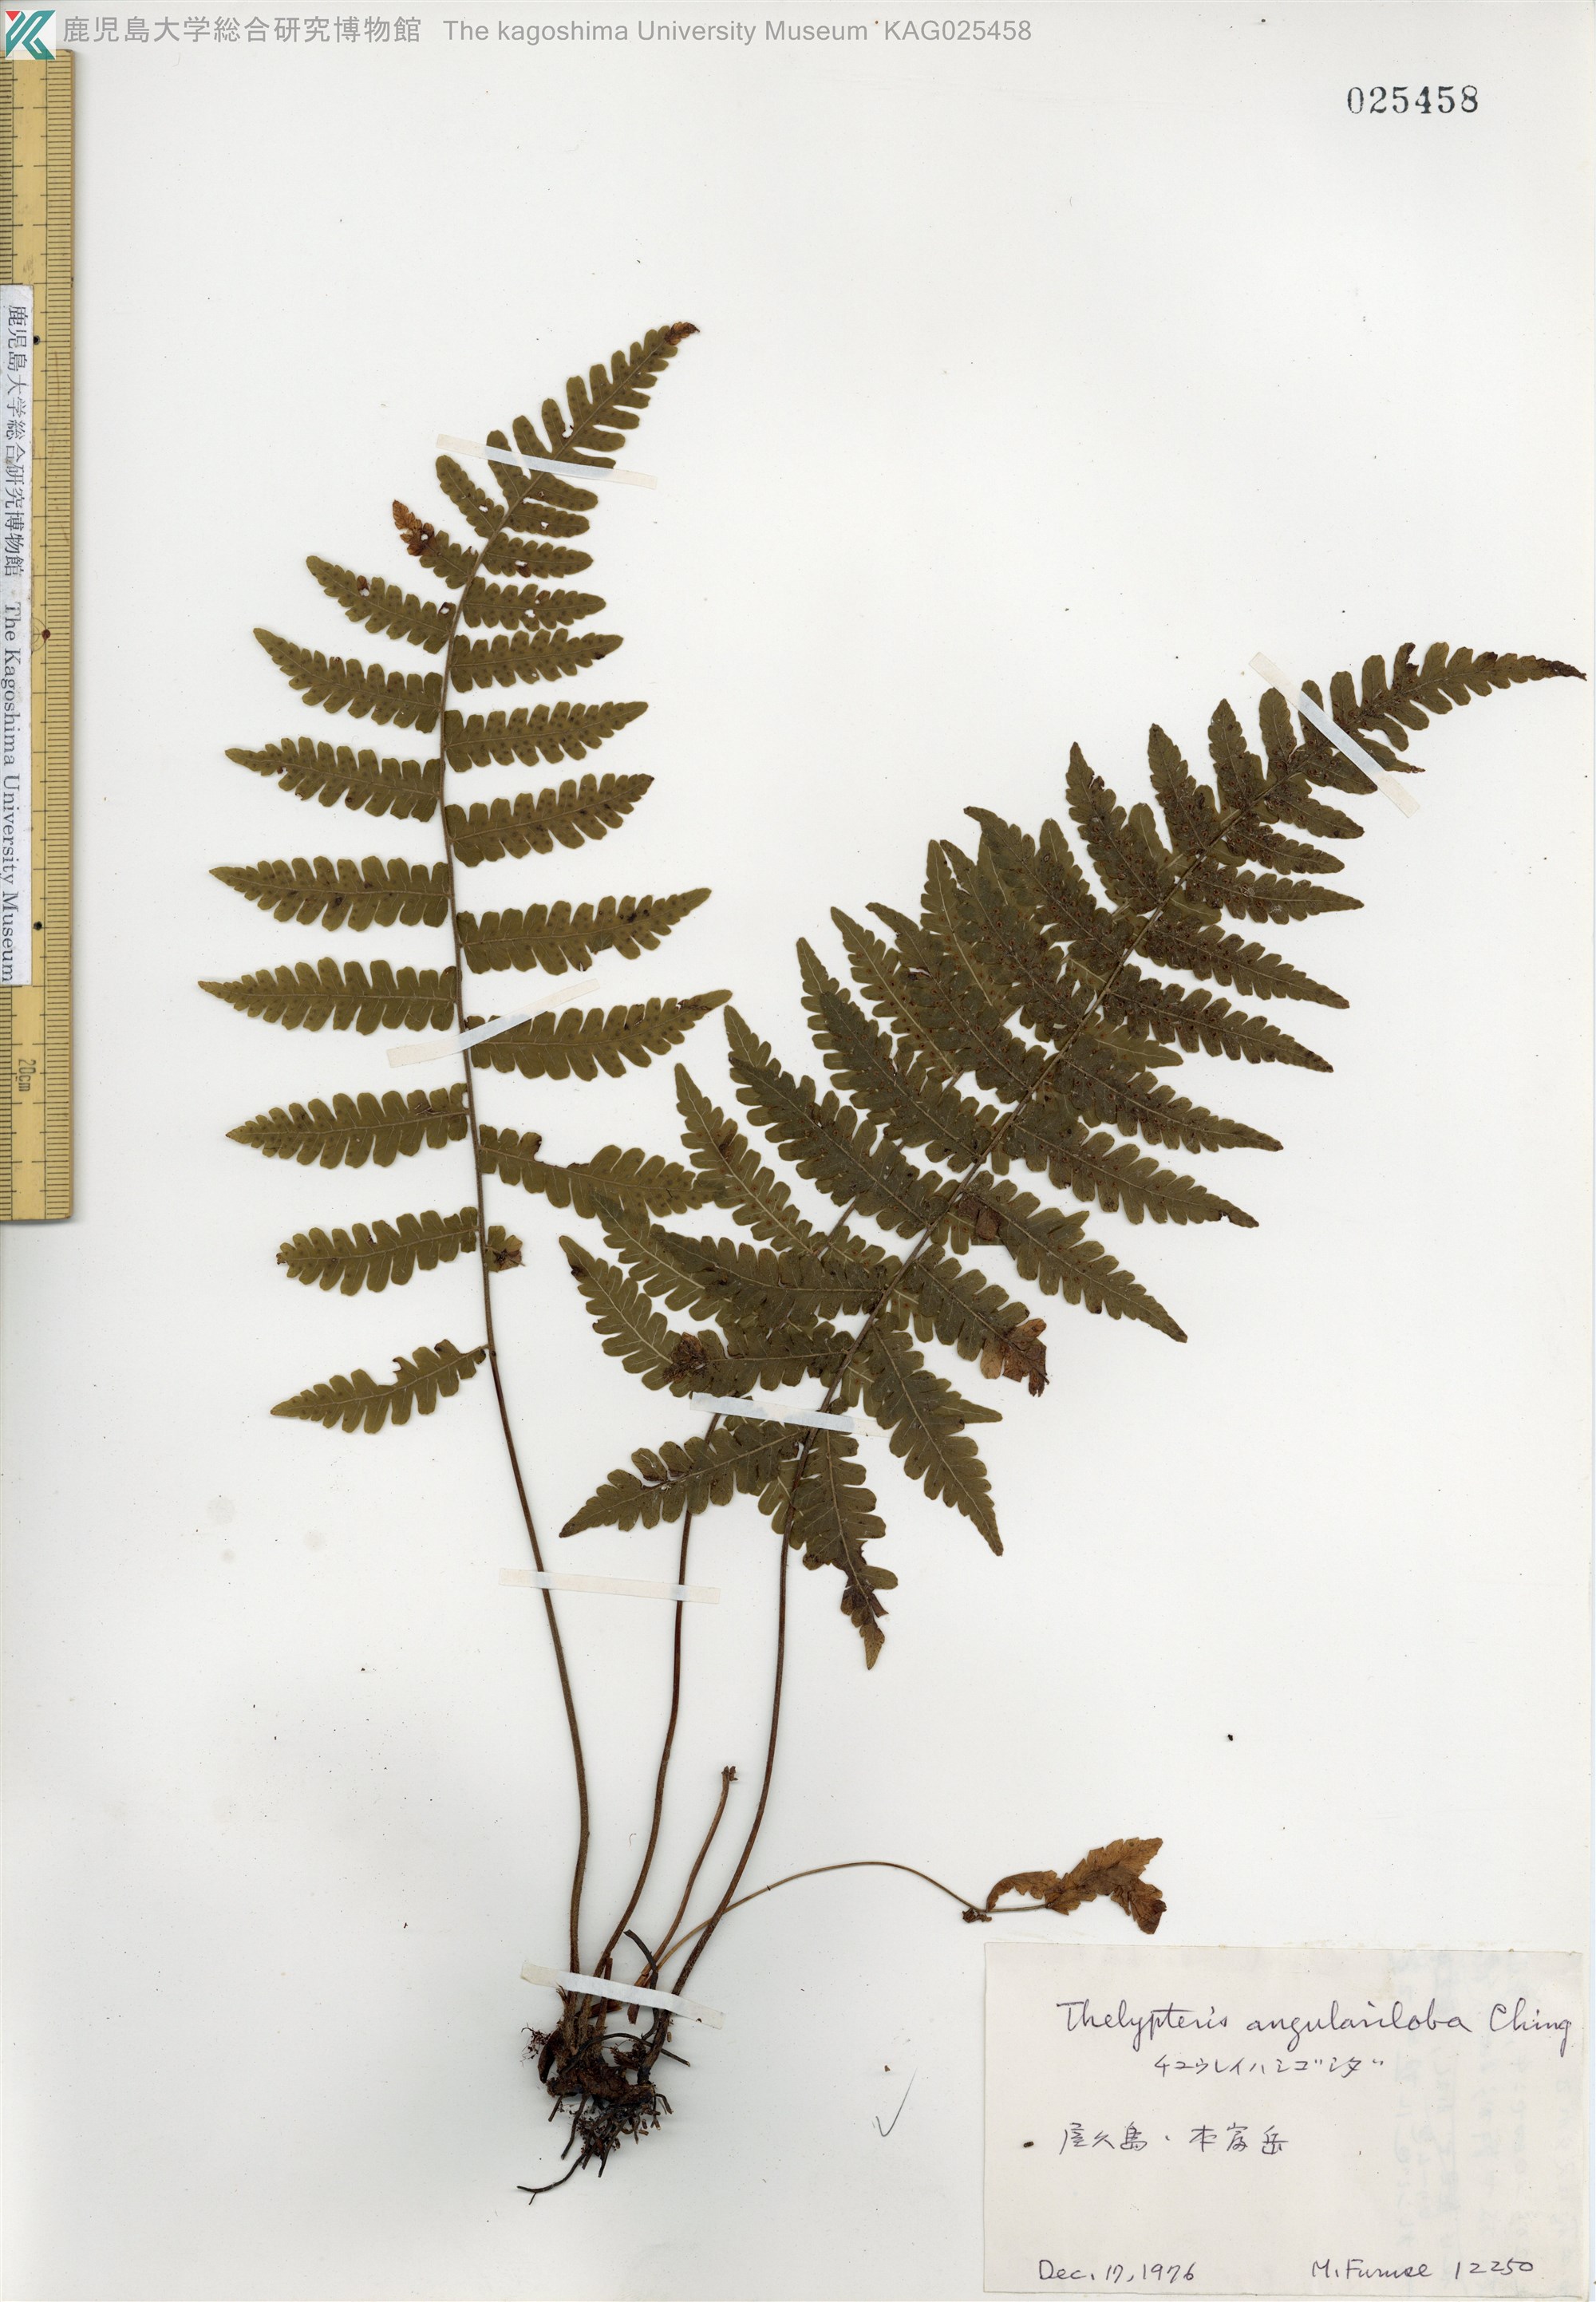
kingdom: Plantae
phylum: Tracheophyta
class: Polypodiopsida
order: Polypodiales
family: Thelypteridaceae
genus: Coryphopteris
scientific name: Coryphopteris hirsutipes
